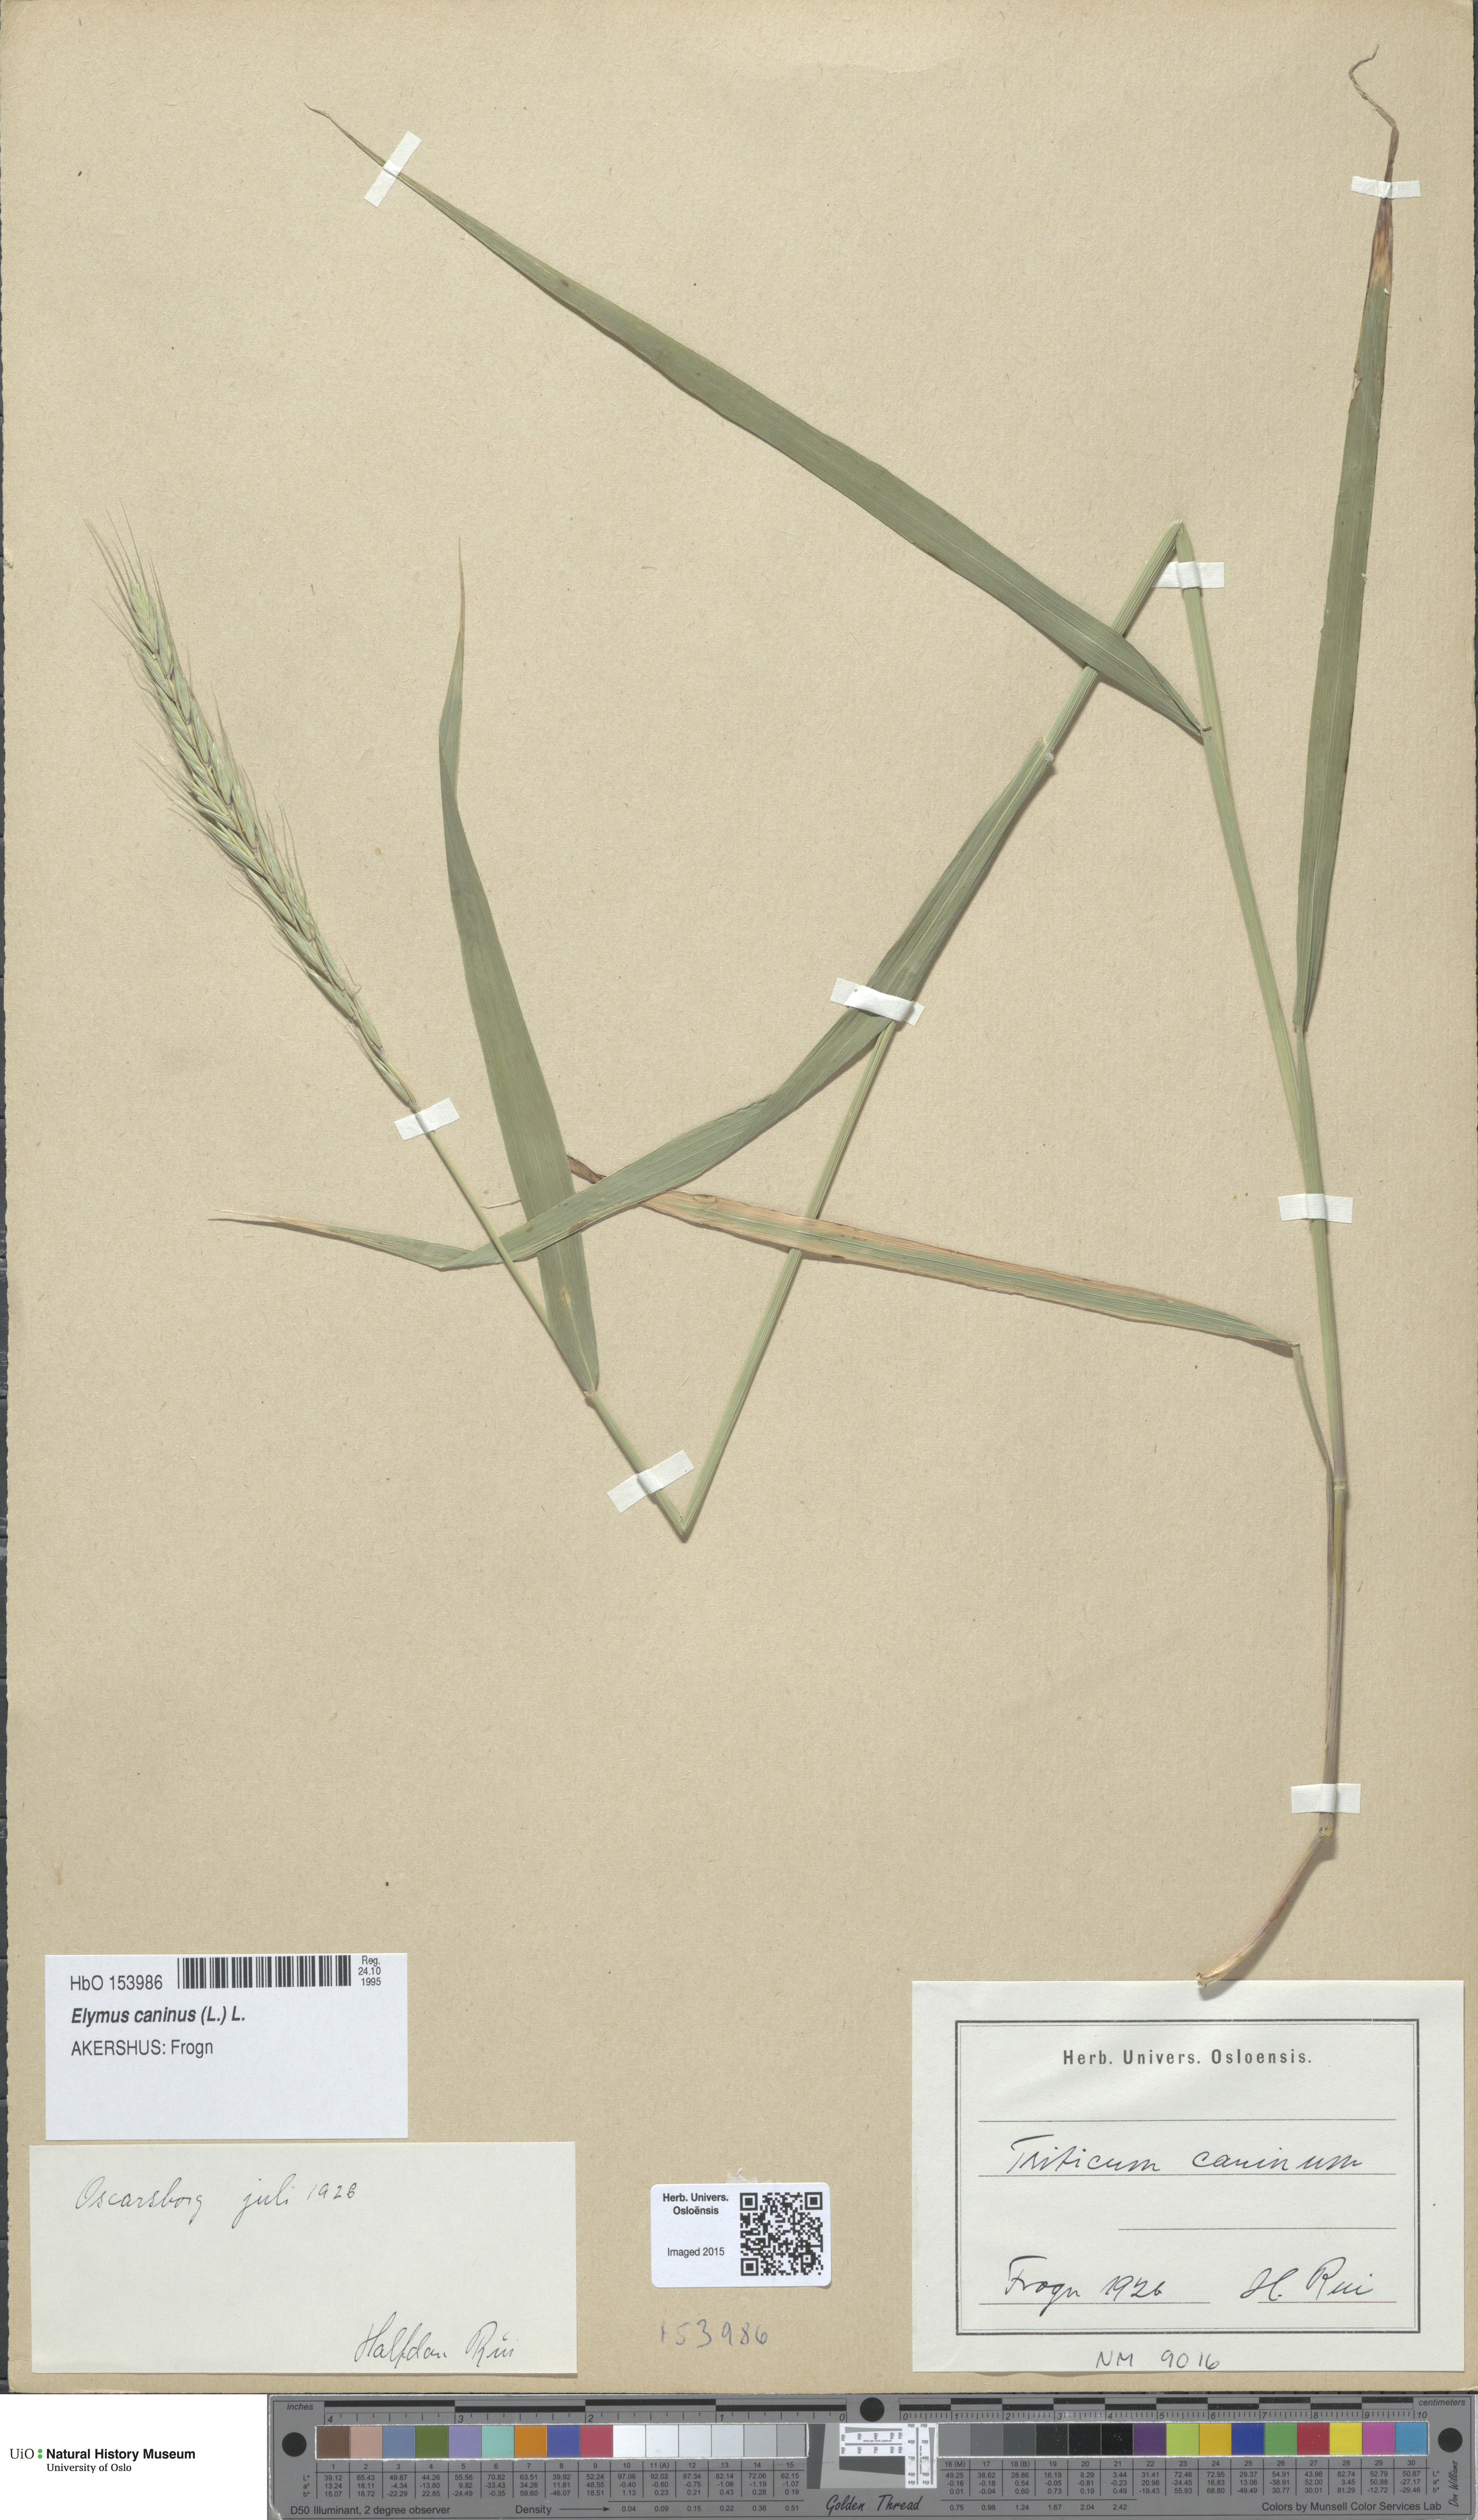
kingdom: Plantae
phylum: Tracheophyta
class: Liliopsida
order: Poales
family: Poaceae
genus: Elymus
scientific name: Elymus caninus
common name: Bearded couch
